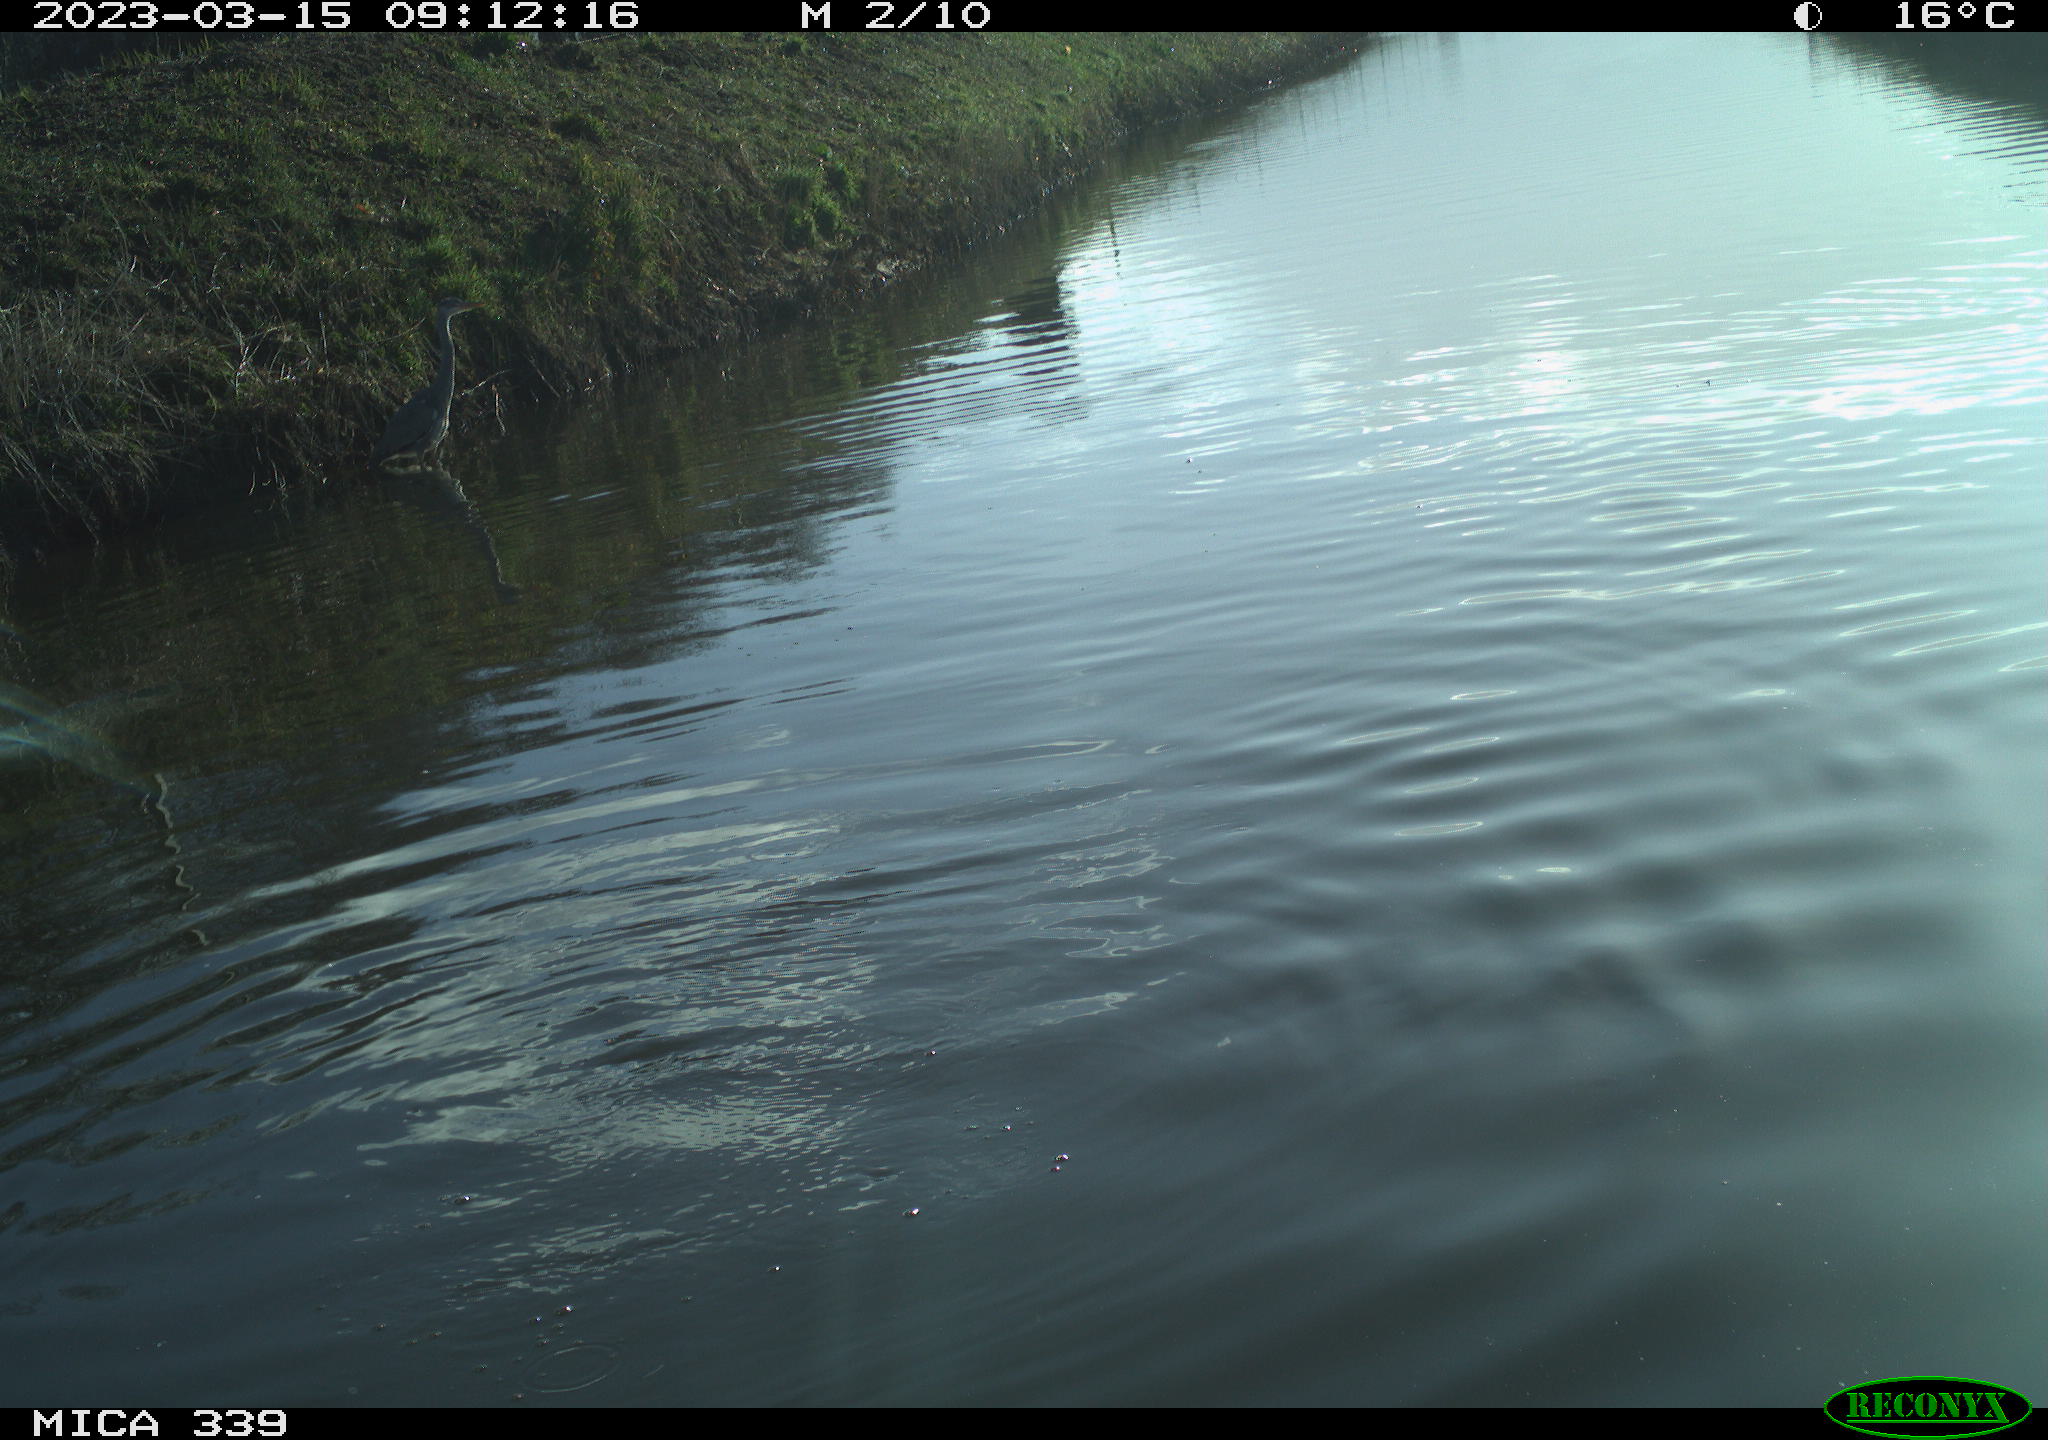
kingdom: Animalia
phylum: Chordata
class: Aves
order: Gruiformes
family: Rallidae
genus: Fulica
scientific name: Fulica atra
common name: Eurasian coot
